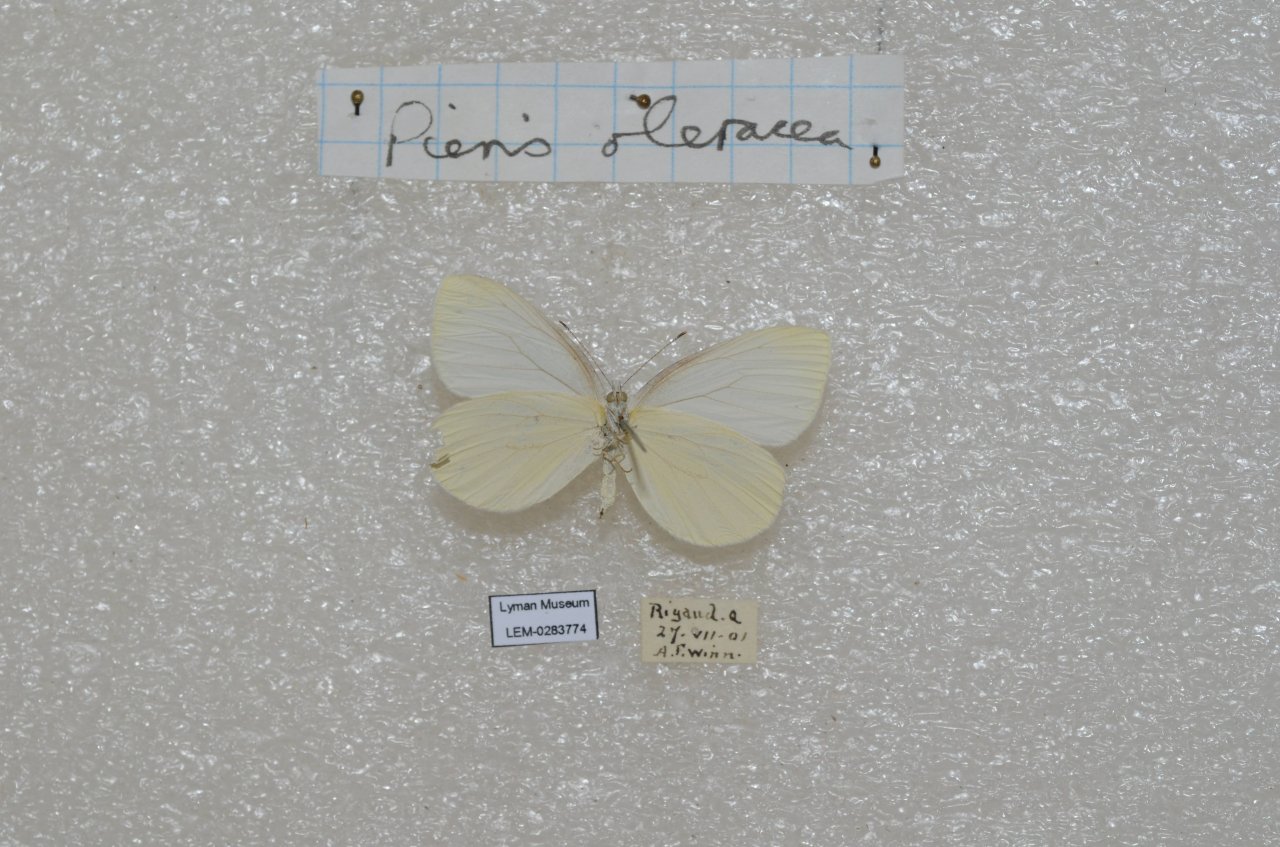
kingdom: Animalia
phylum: Arthropoda
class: Insecta
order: Lepidoptera
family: Pieridae
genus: Pieris
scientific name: Pieris oleracea
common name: Mustard White
